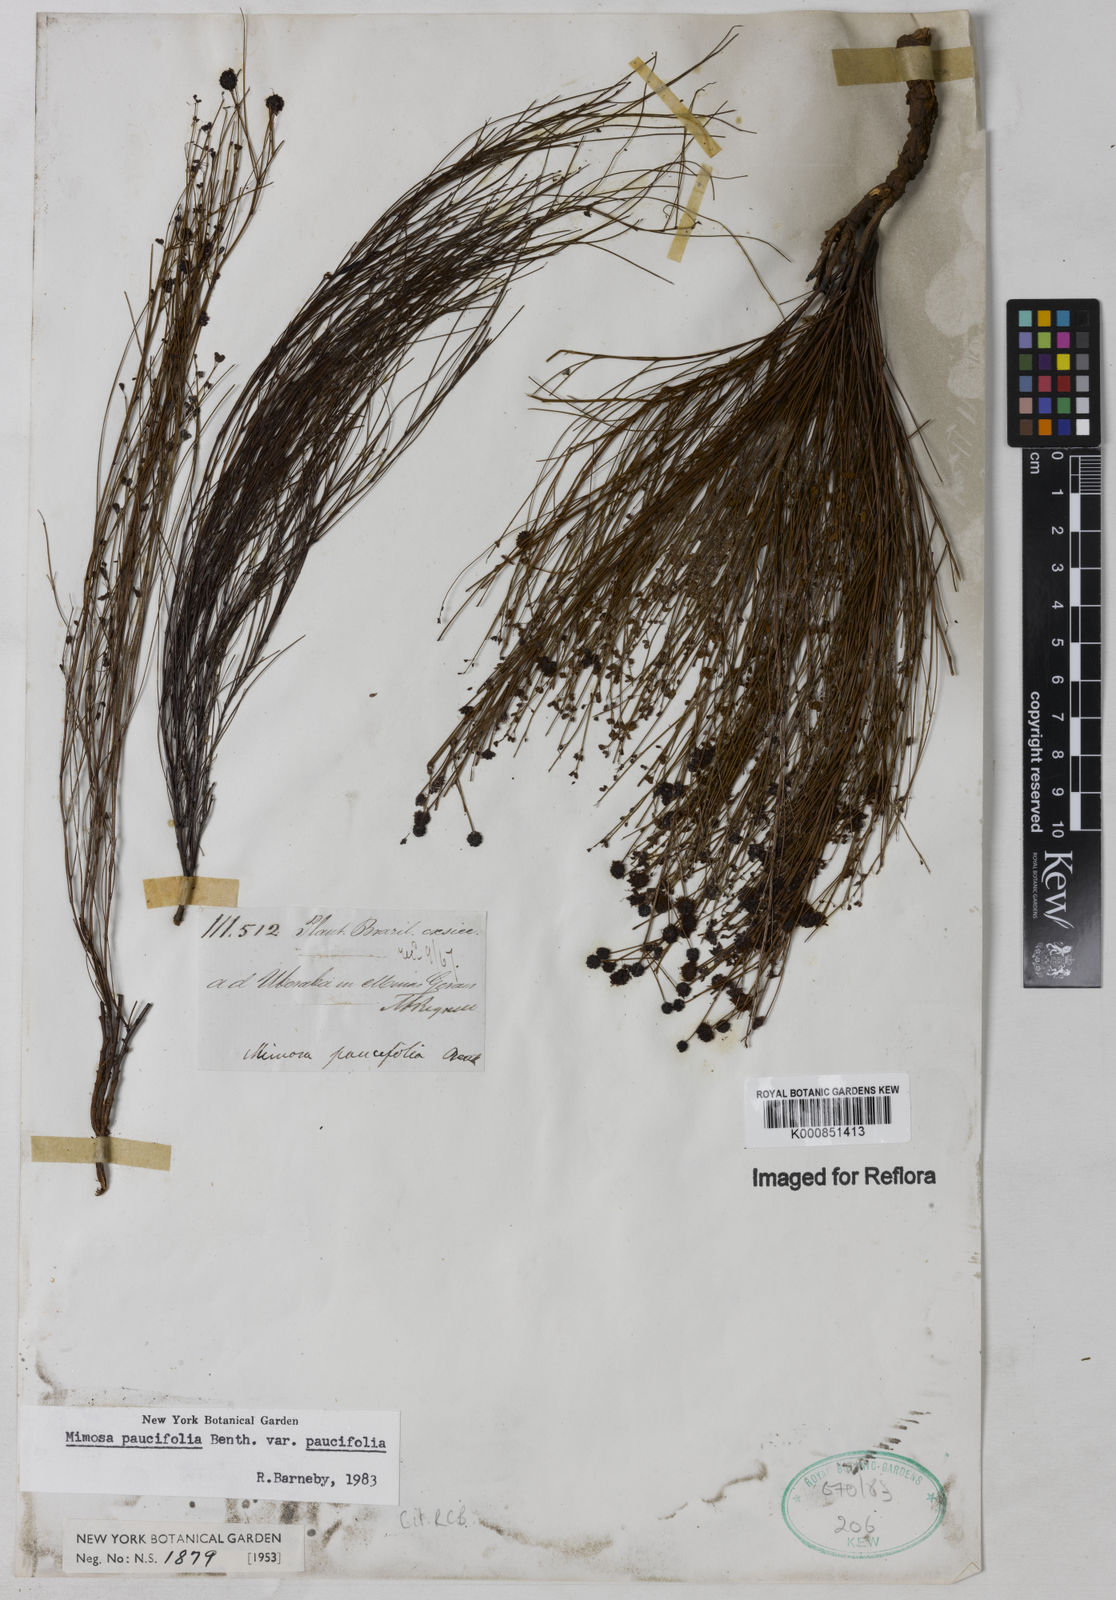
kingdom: Plantae
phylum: Tracheophyta
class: Magnoliopsida
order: Fabales
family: Fabaceae
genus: Mimosa
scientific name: Mimosa paucifolia
